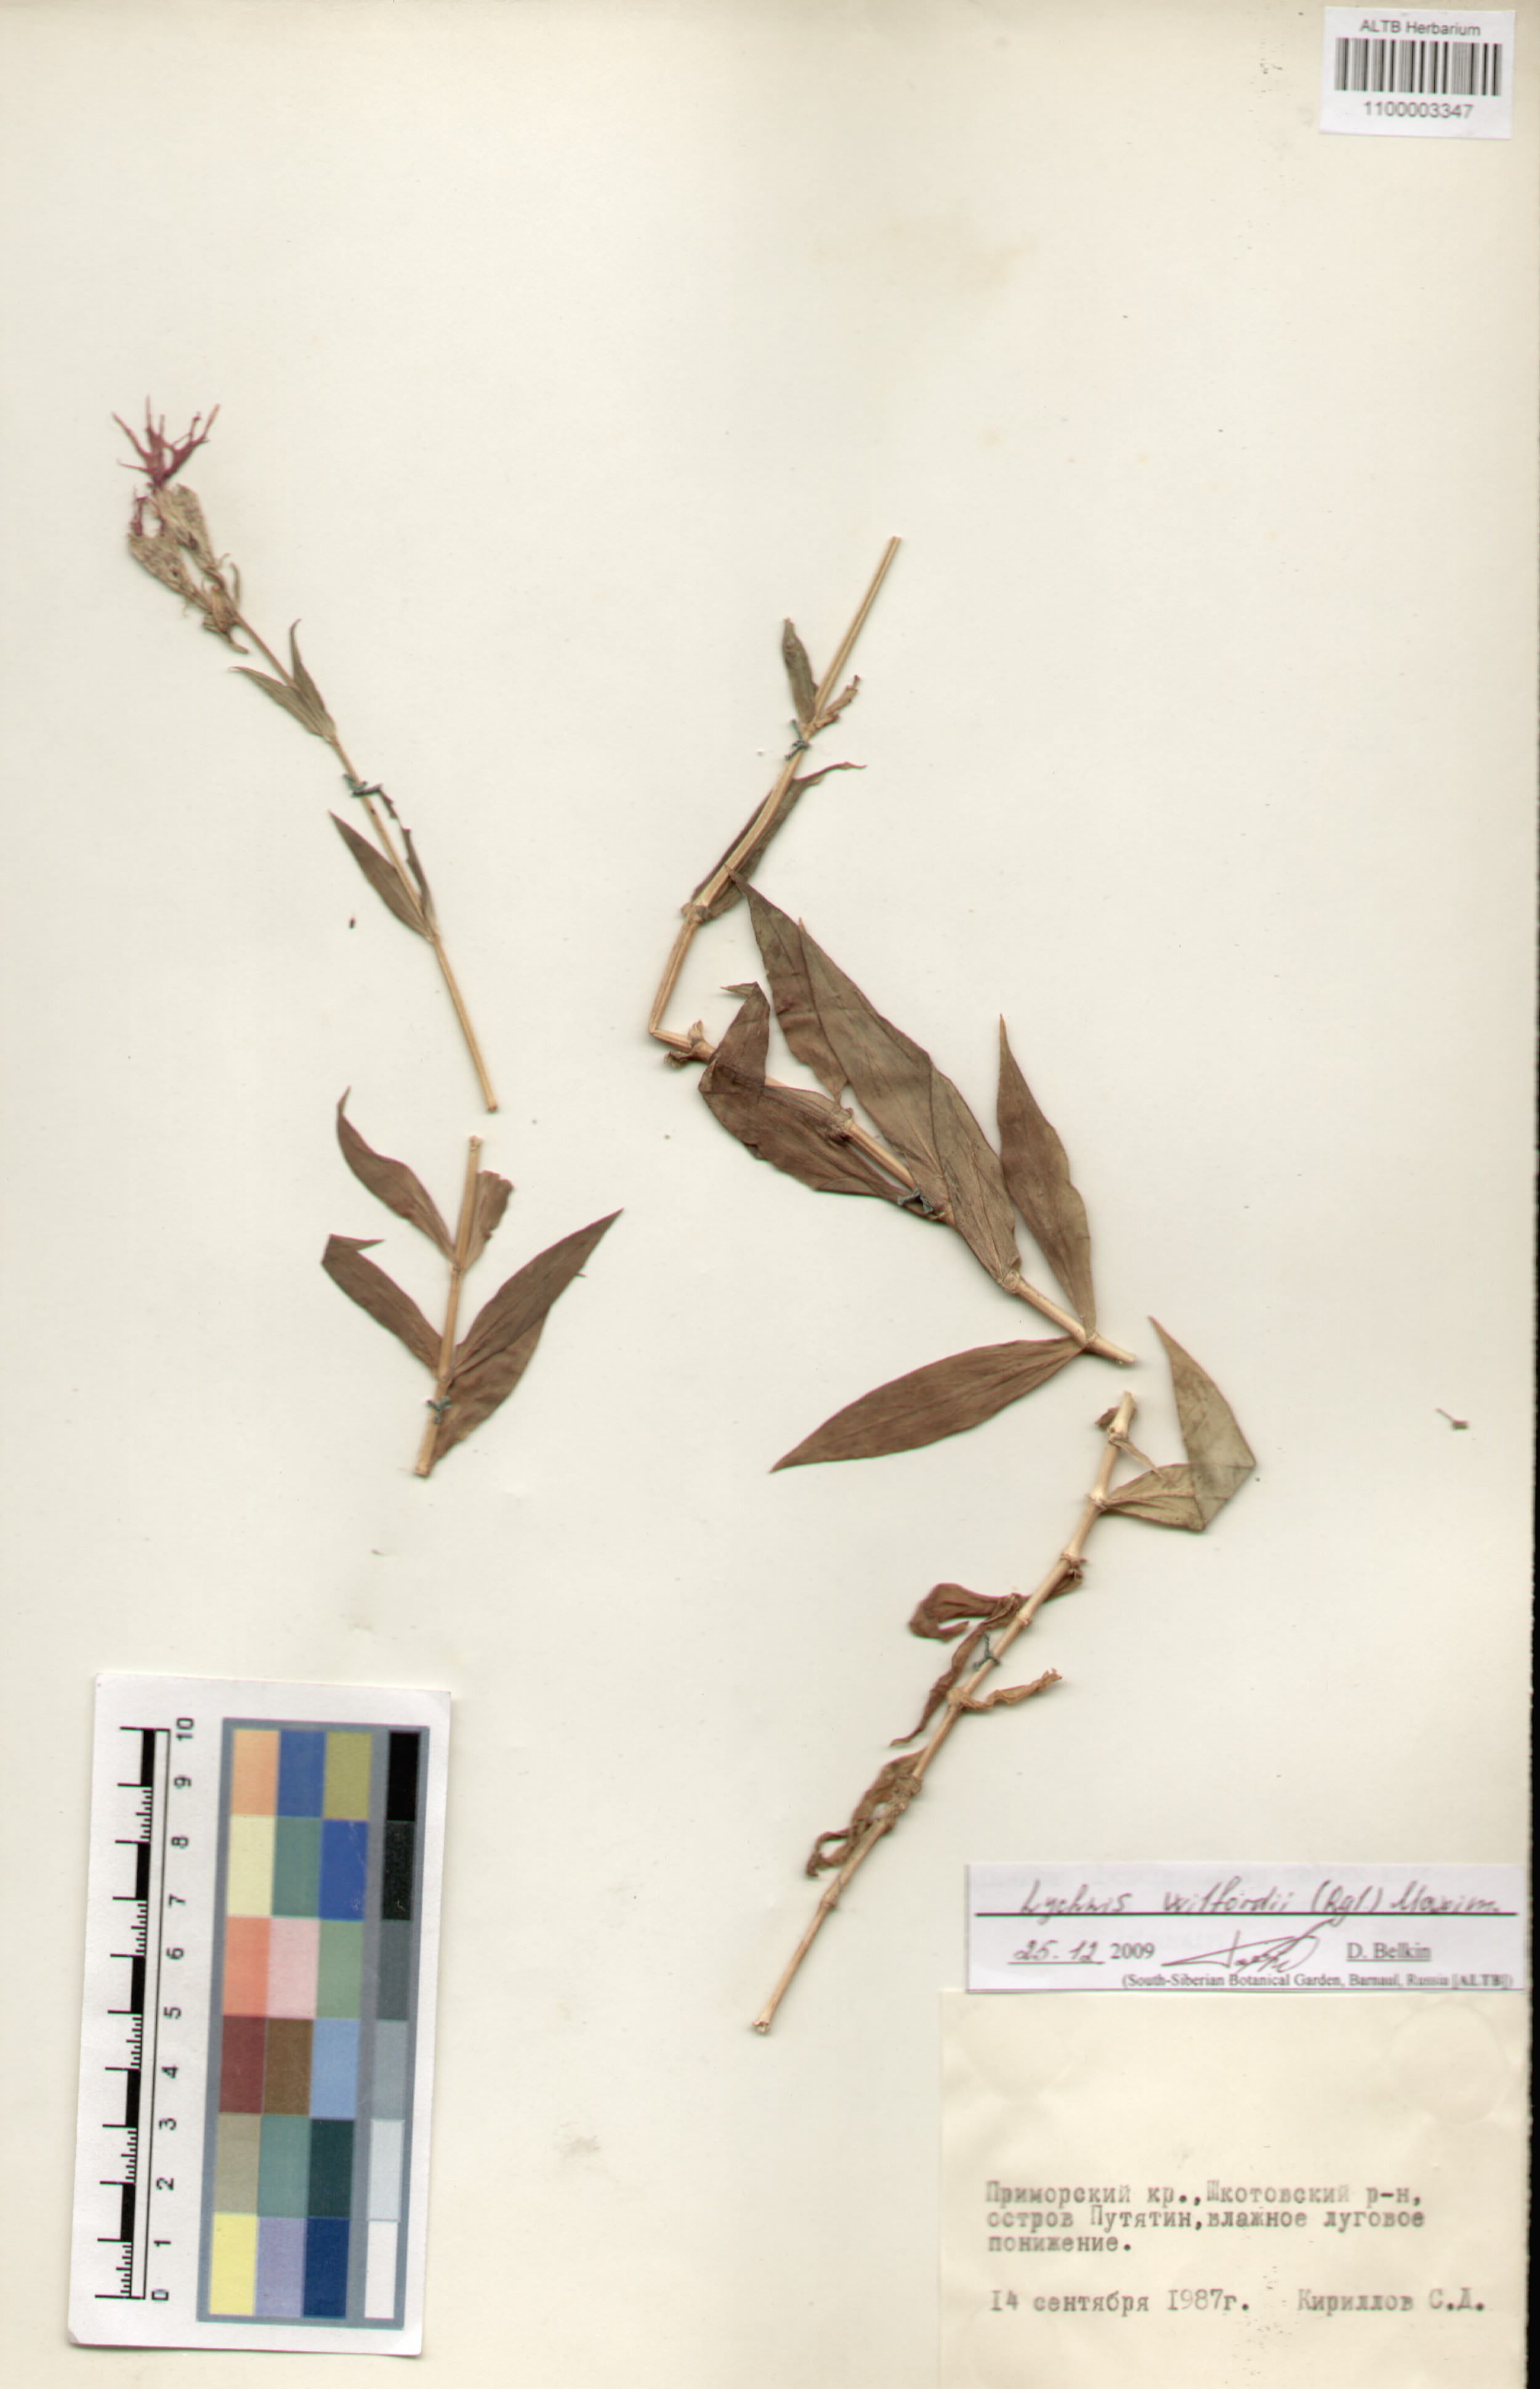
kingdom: Plantae
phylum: Tracheophyta
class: Magnoliopsida
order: Caryophyllales
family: Caryophyllaceae
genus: Silene
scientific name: Silene wilfordii
